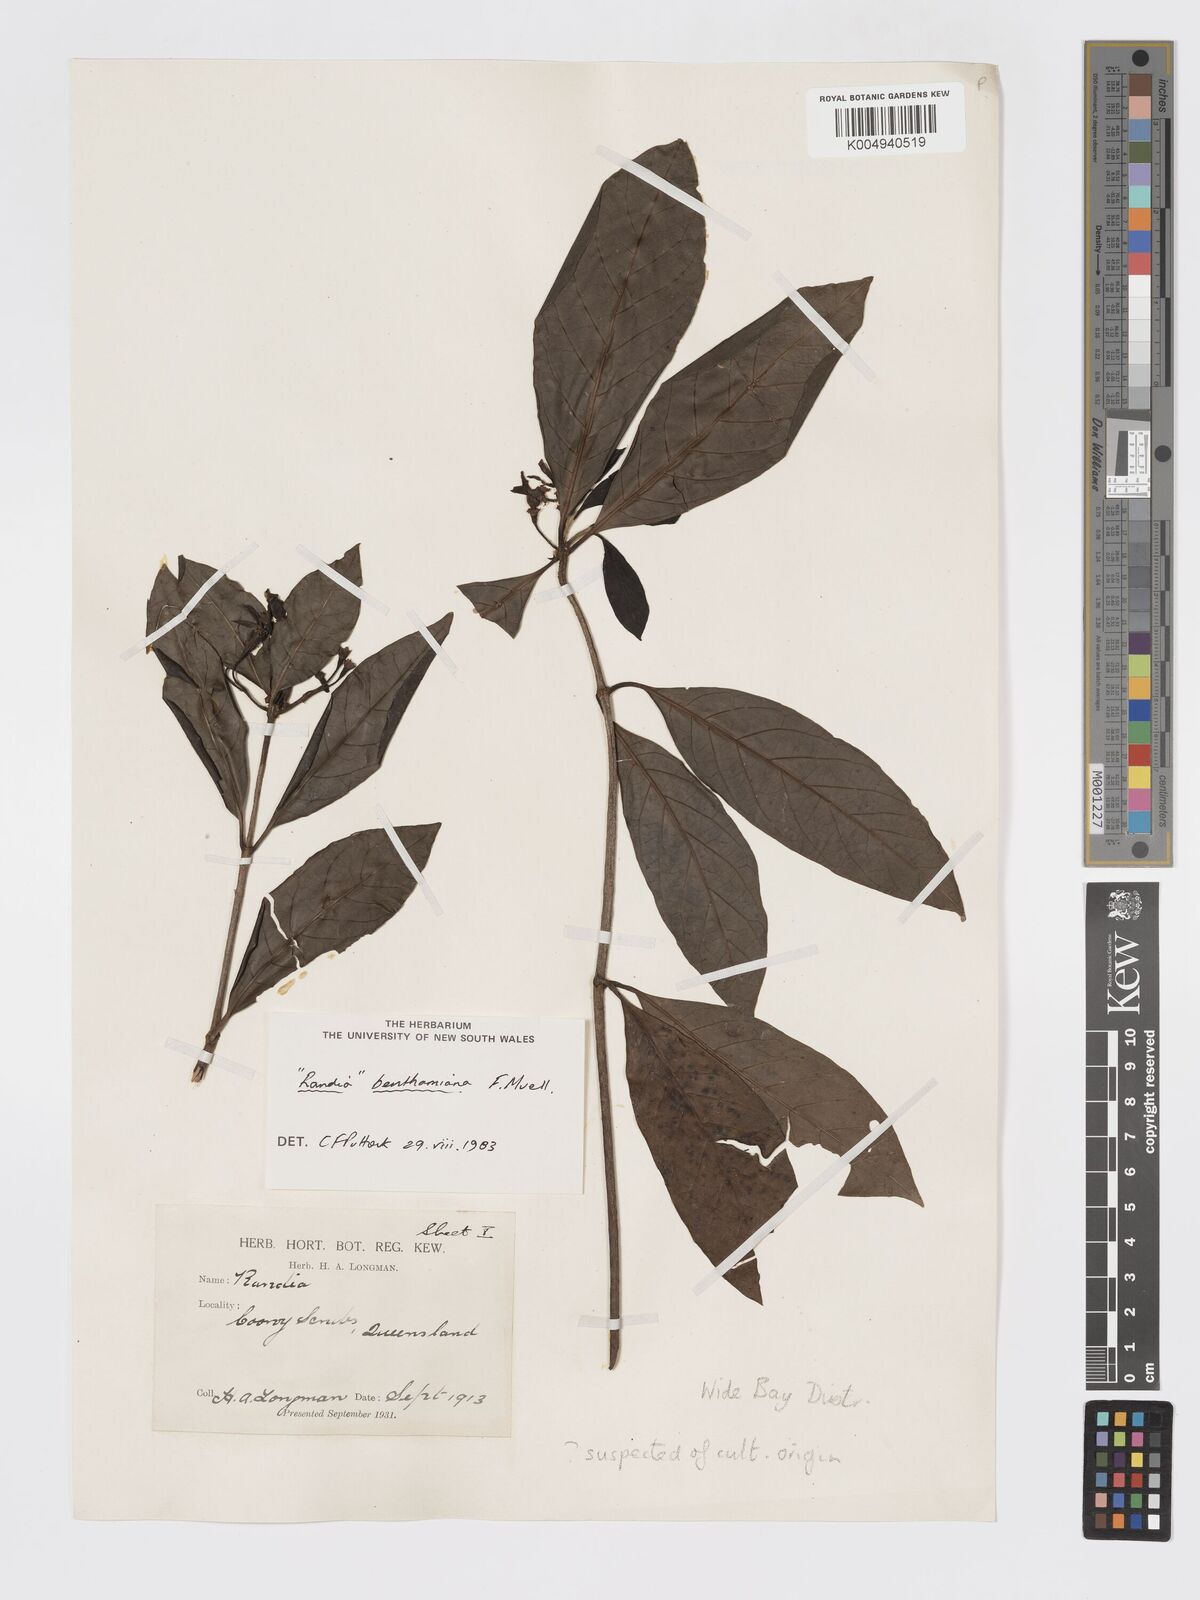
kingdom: Plantae
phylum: Tracheophyta
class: Magnoliopsida
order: Gentianales
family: Rubiaceae
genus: Atractocarpus
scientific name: Atractocarpus benthamianus
